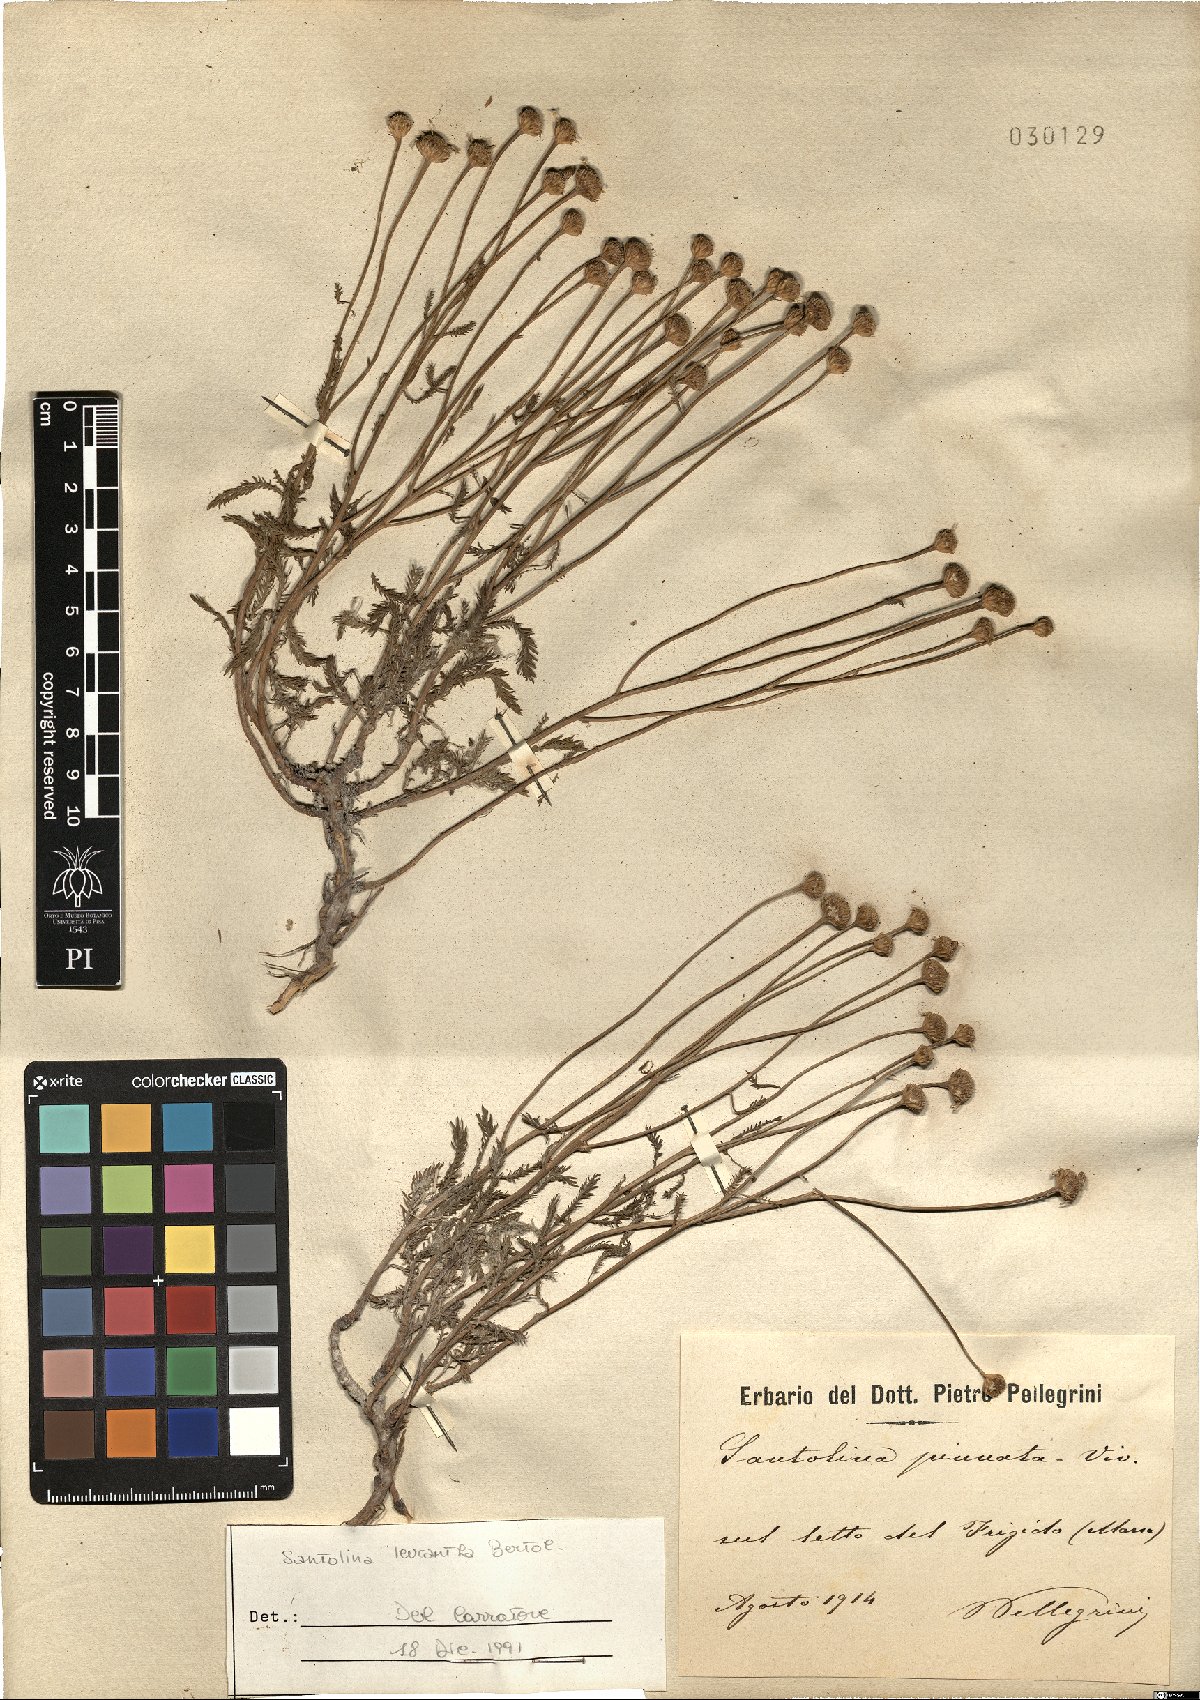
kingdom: Plantae
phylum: Tracheophyta
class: Magnoliopsida
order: Asterales
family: Asteraceae
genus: Santolina
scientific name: Santolina pinnata
